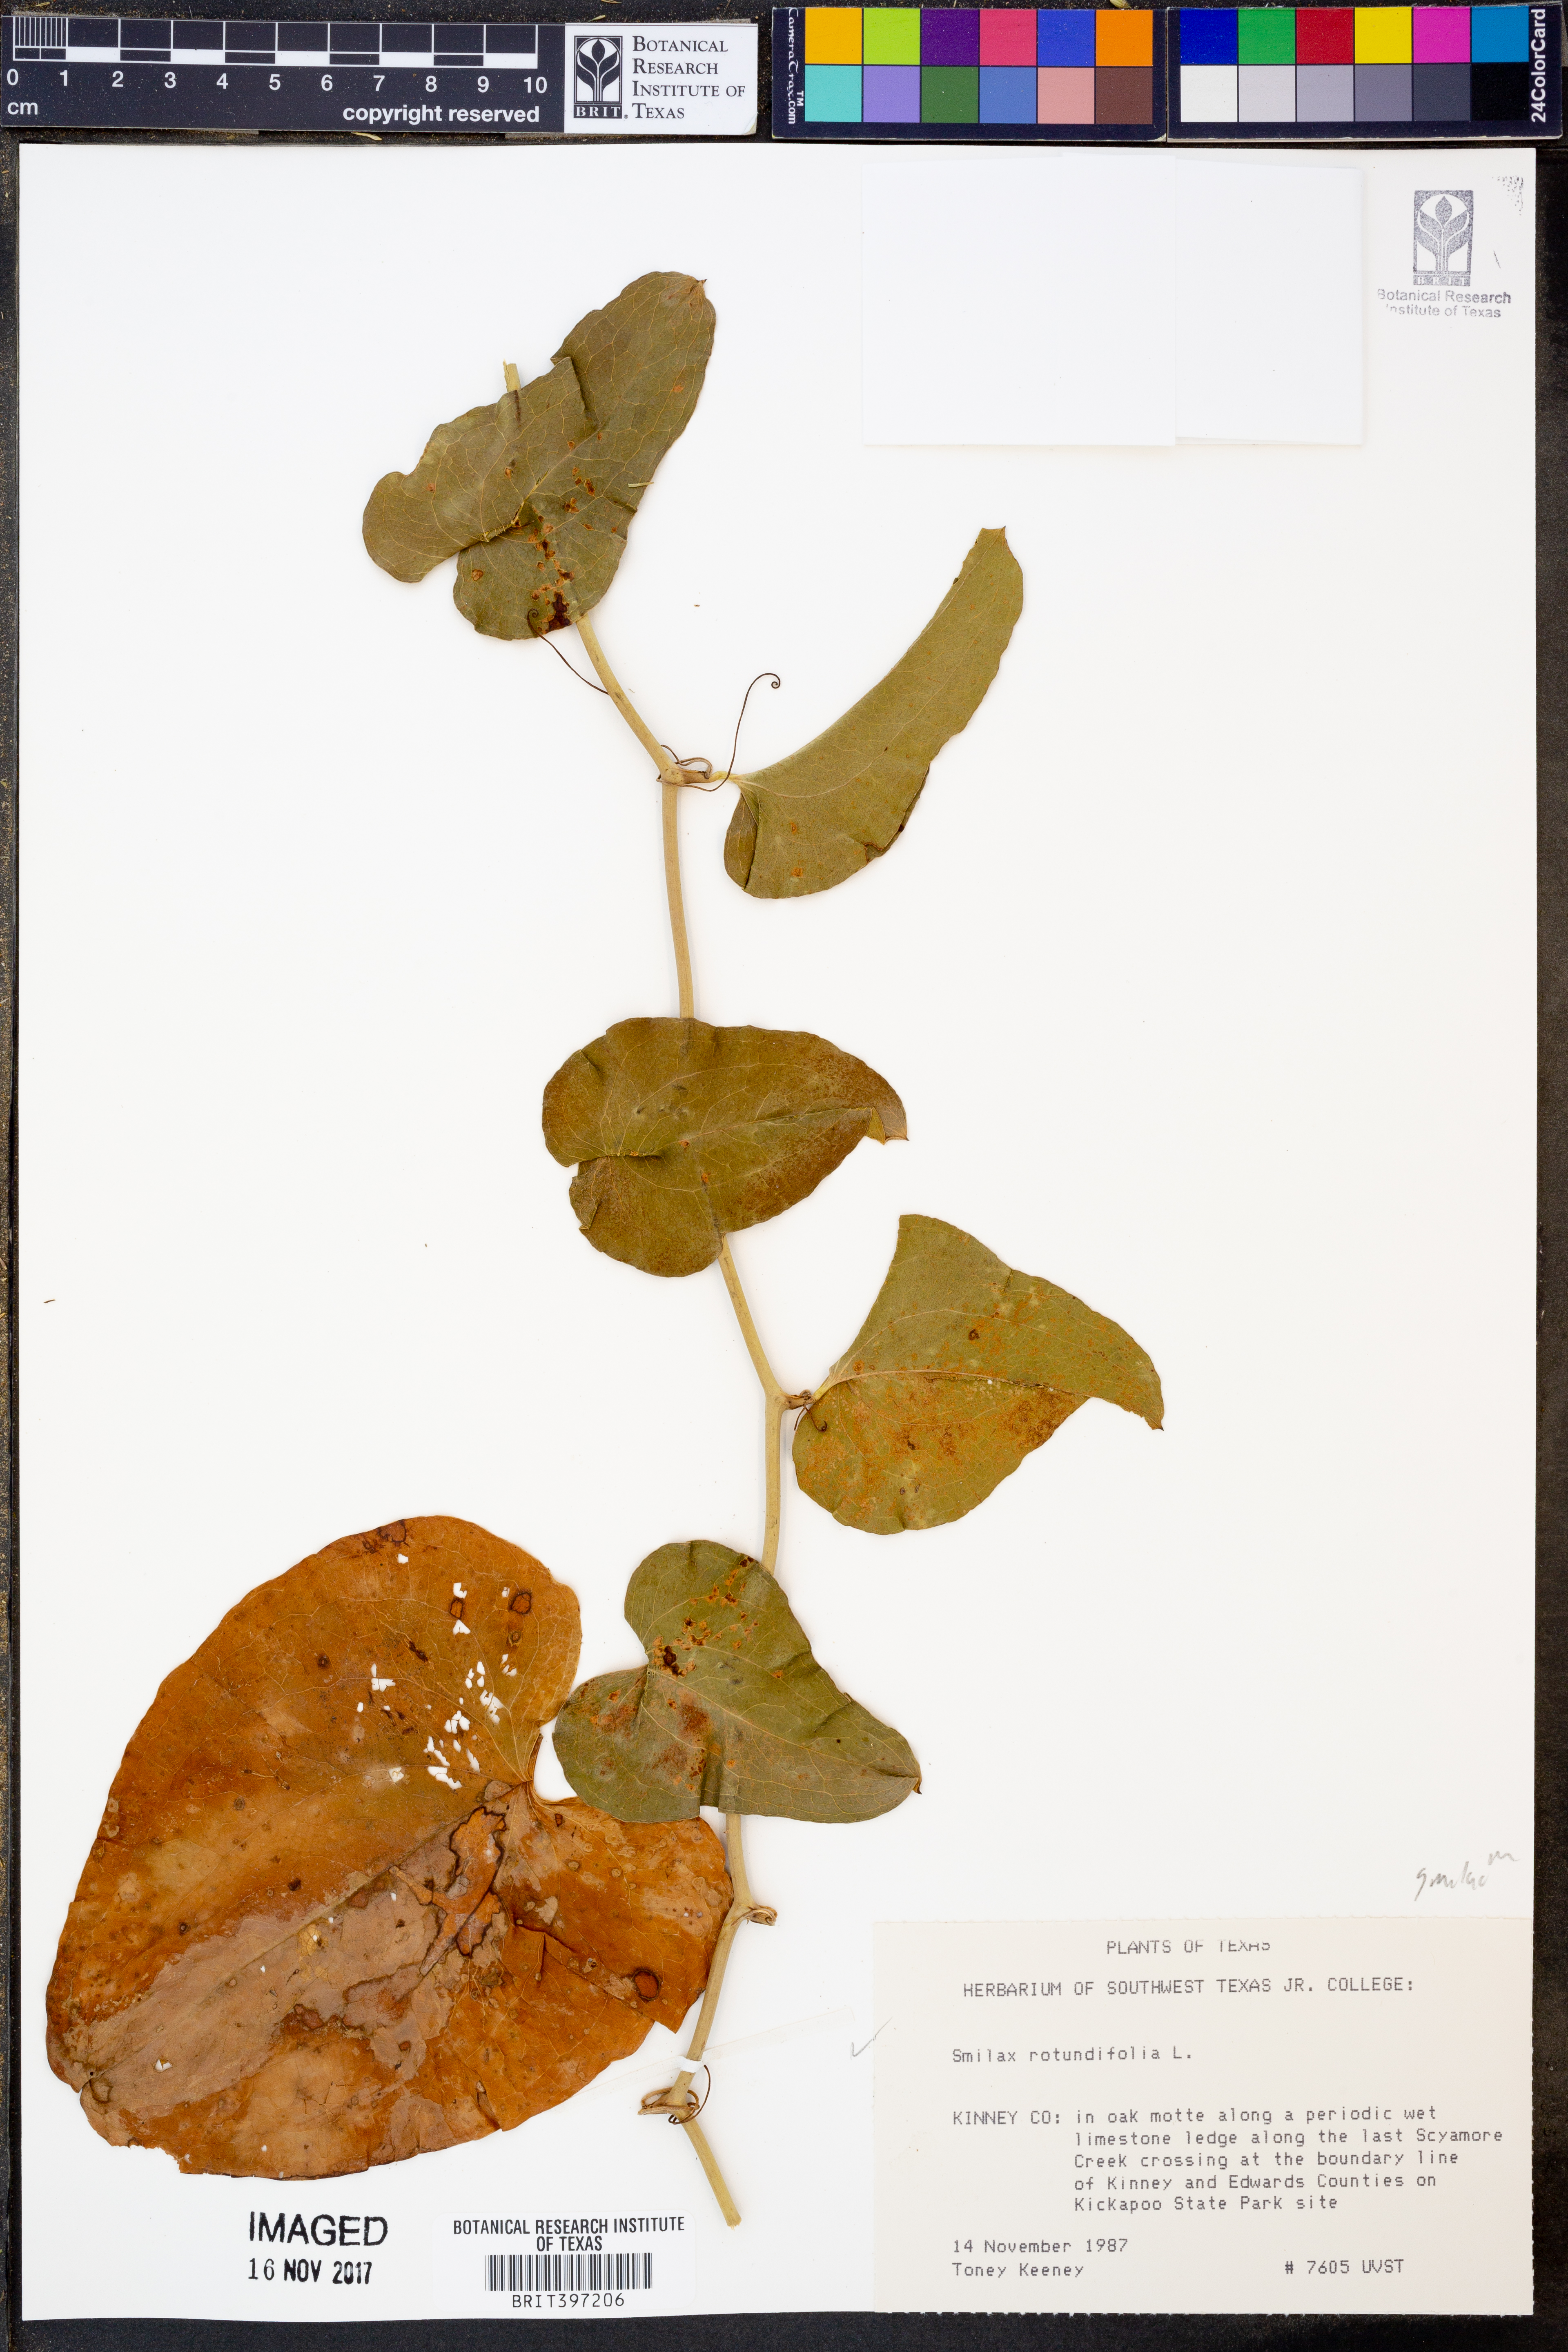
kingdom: Plantae
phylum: Tracheophyta
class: Liliopsida
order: Liliales
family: Smilacaceae
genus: Smilax
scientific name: Smilax rotundifolia
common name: Bullbriar
